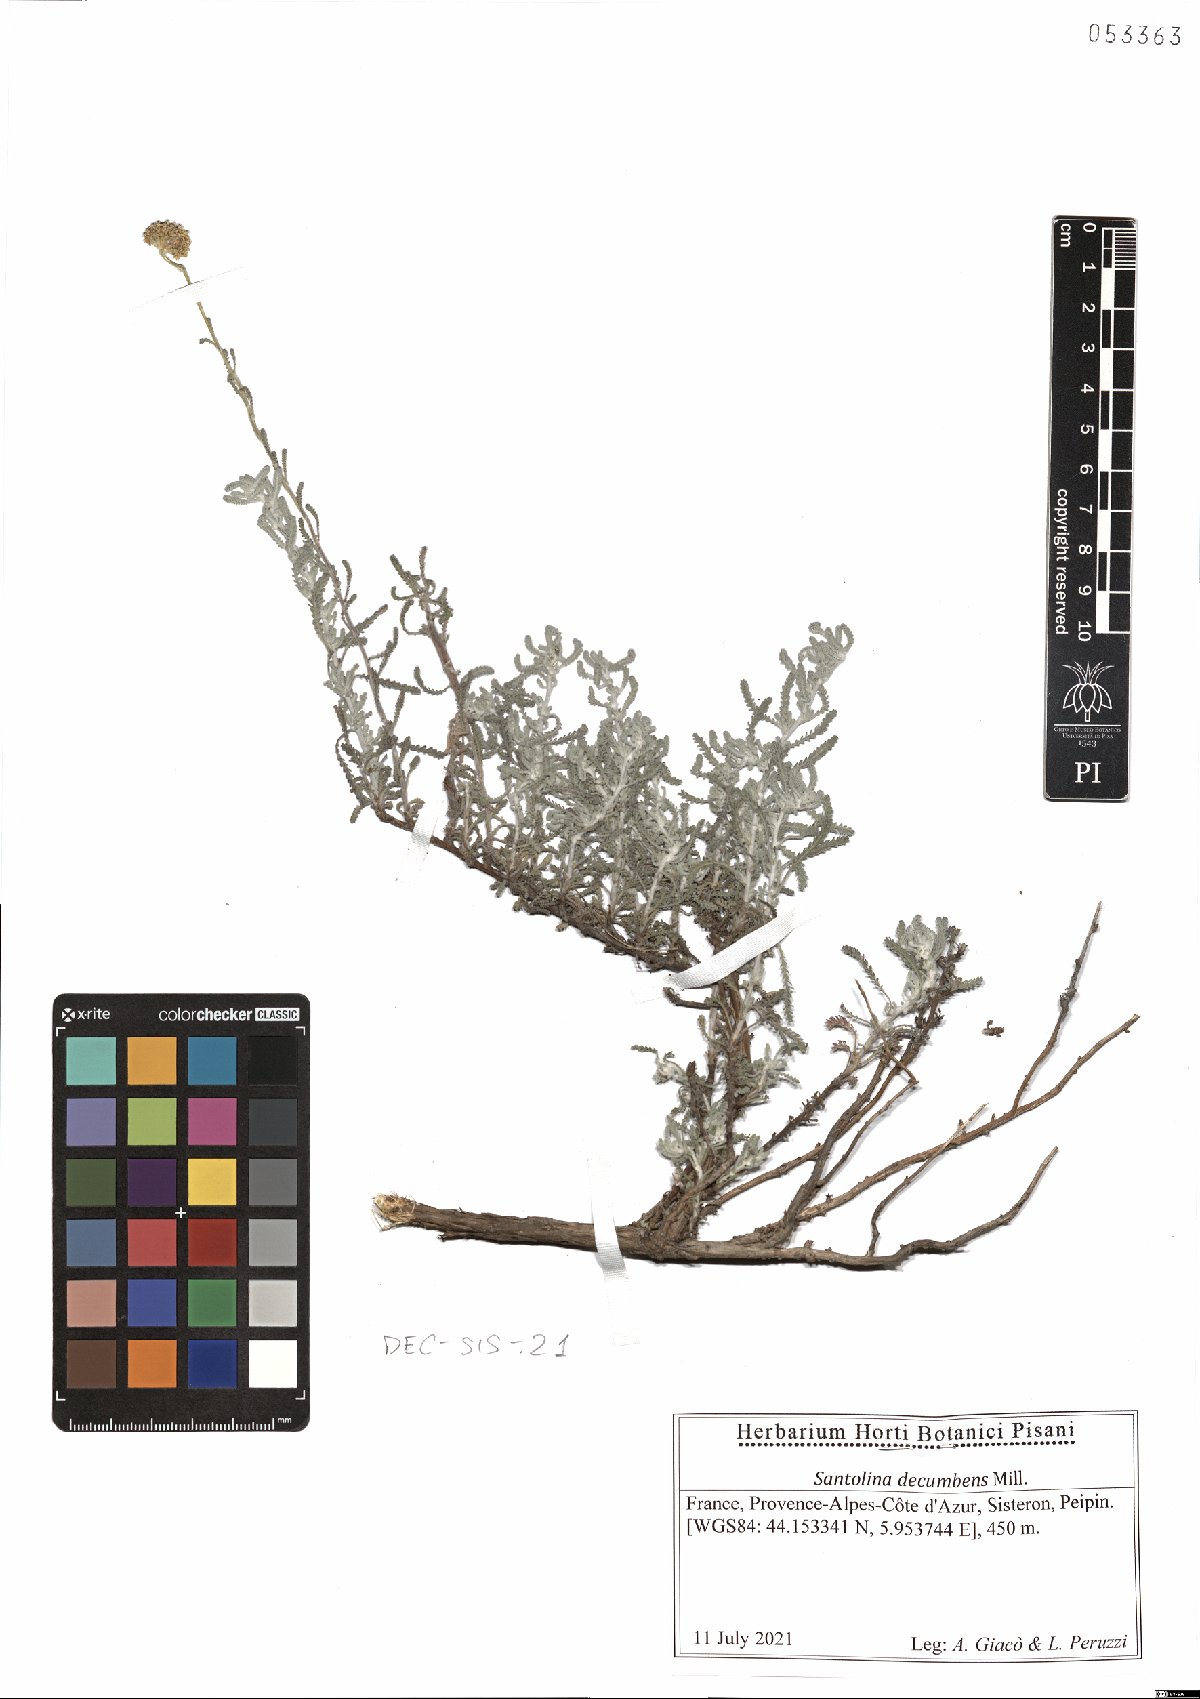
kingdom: Plantae
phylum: Tracheophyta
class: Magnoliopsida
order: Asterales
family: Asteraceae
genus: Santolina
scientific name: Santolina decumbens
